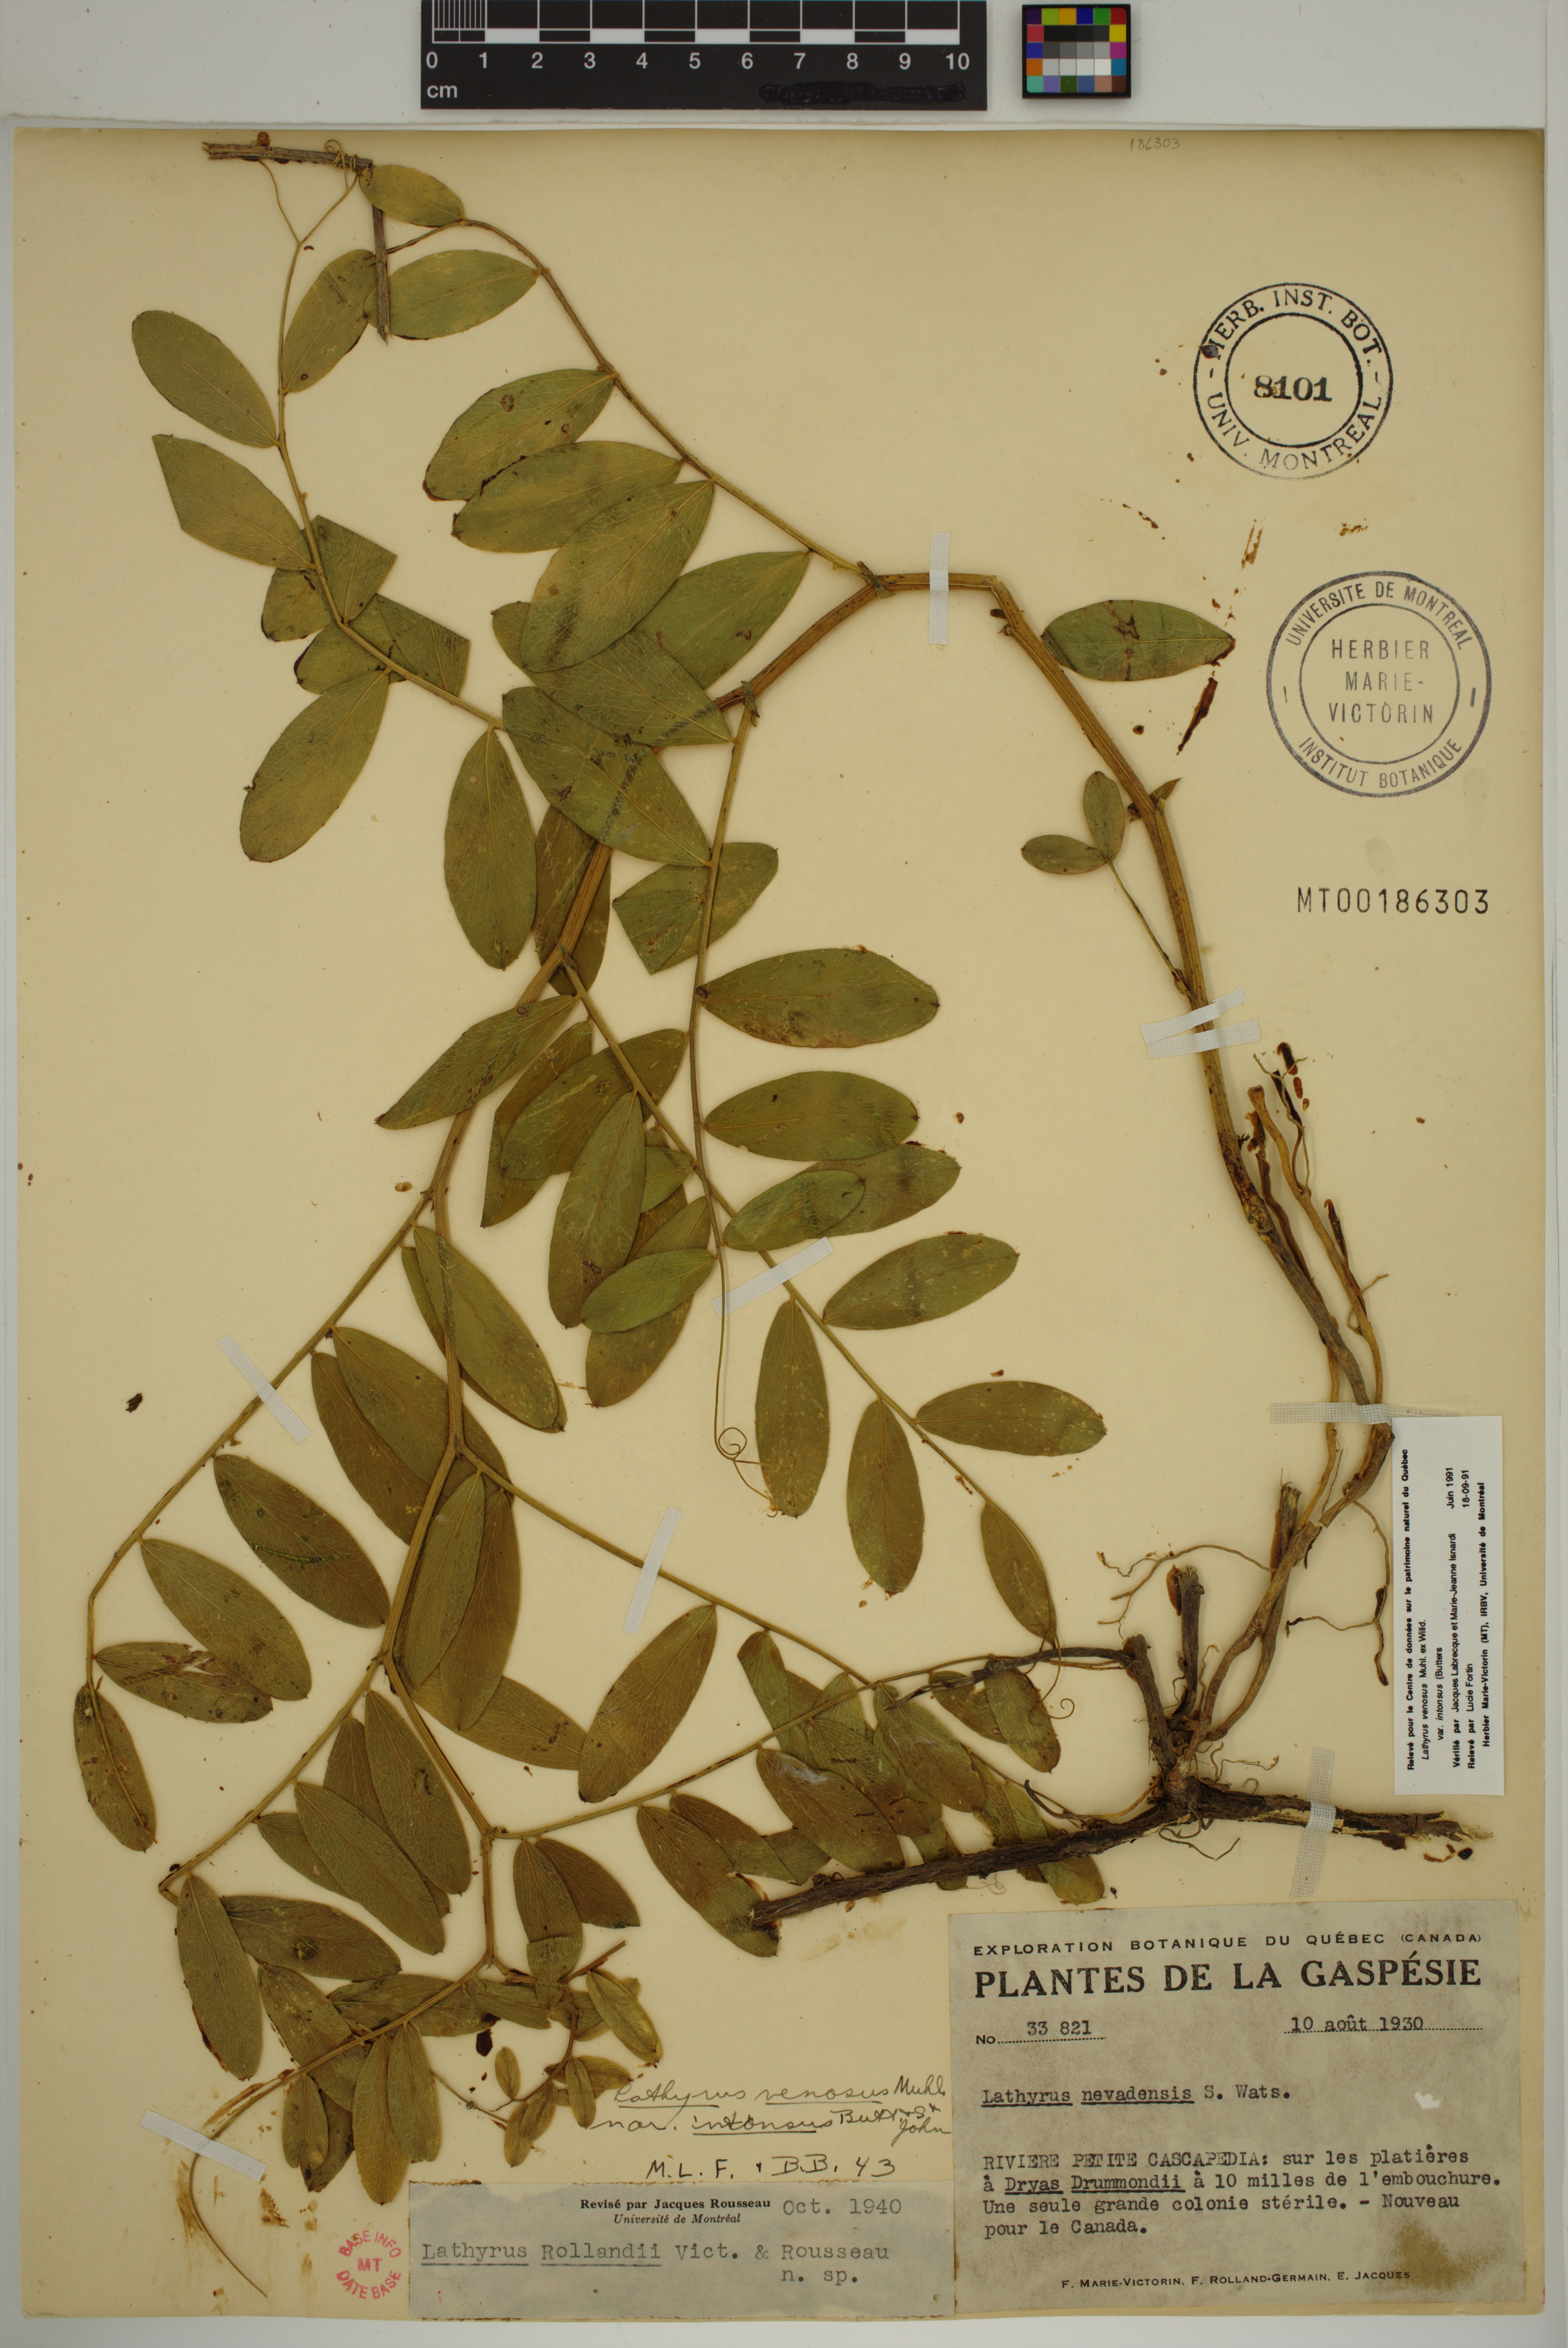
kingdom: Plantae
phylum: Tracheophyta
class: Magnoliopsida
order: Fabales
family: Fabaceae
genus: Lathyrus
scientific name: Lathyrus venosus
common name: Forest-pea
